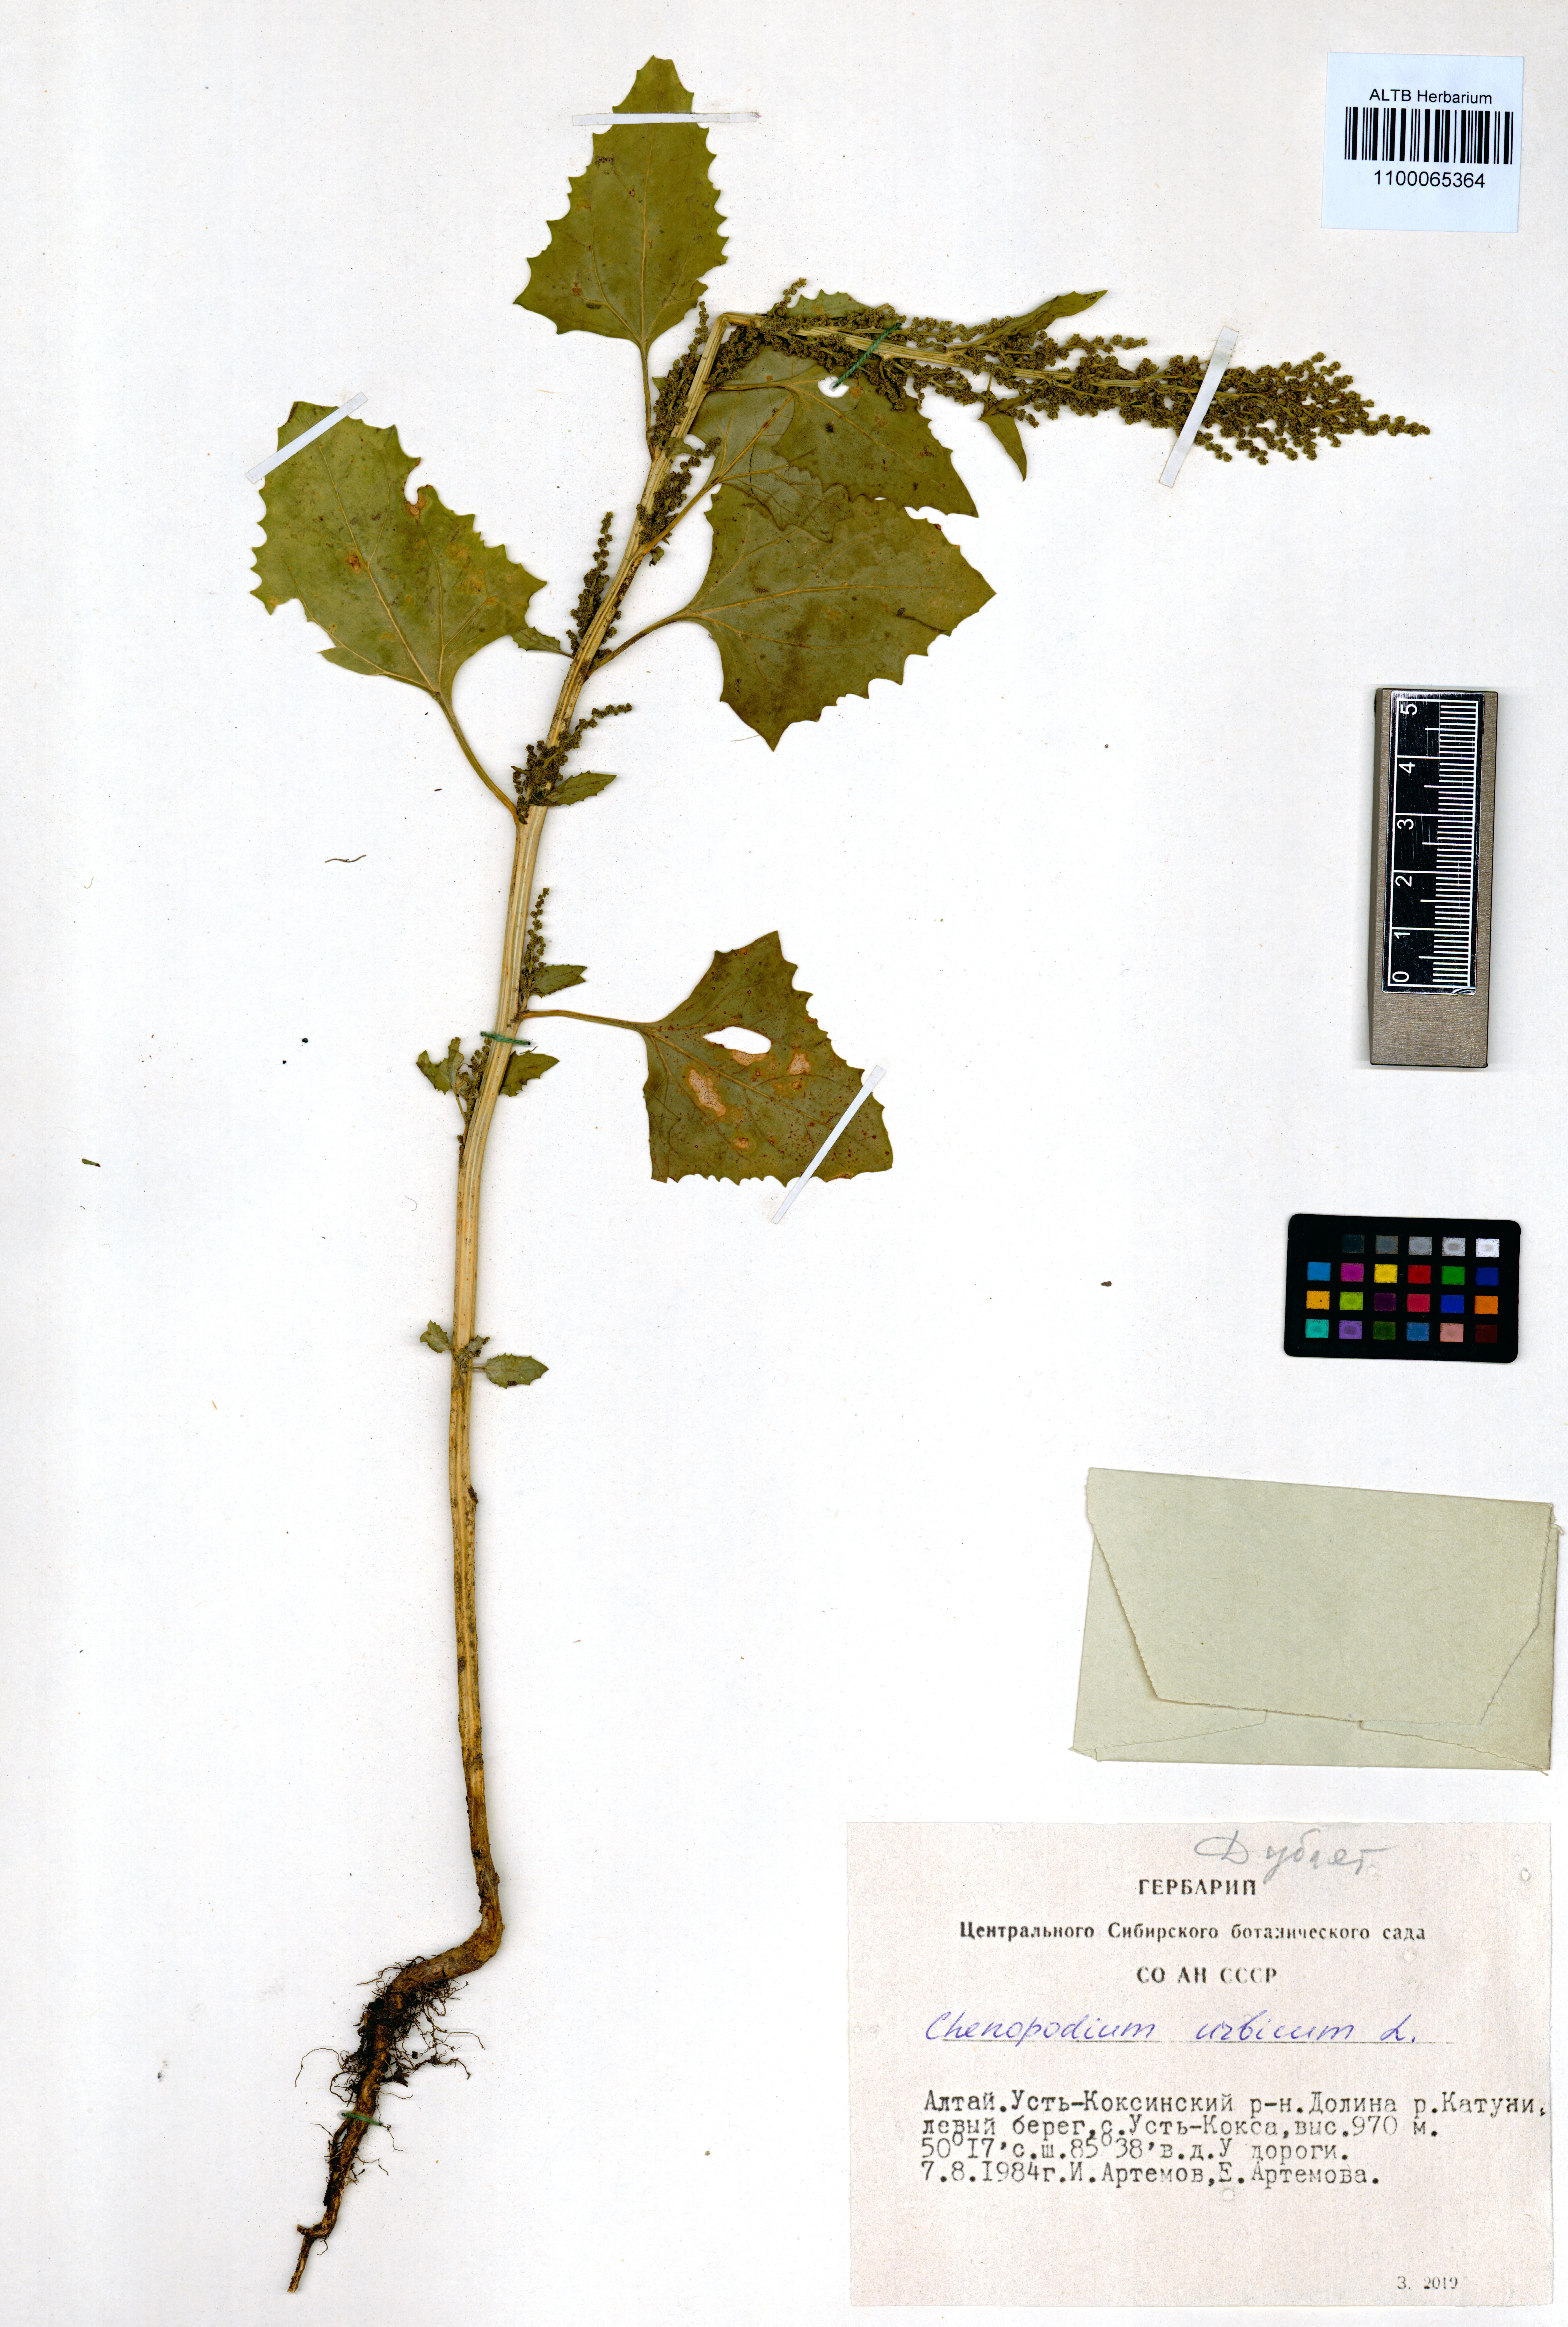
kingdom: Plantae
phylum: Tracheophyta
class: Magnoliopsida
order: Caryophyllales
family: Amaranthaceae
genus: Oxybasis
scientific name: Oxybasis urbica
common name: City goosefoot
